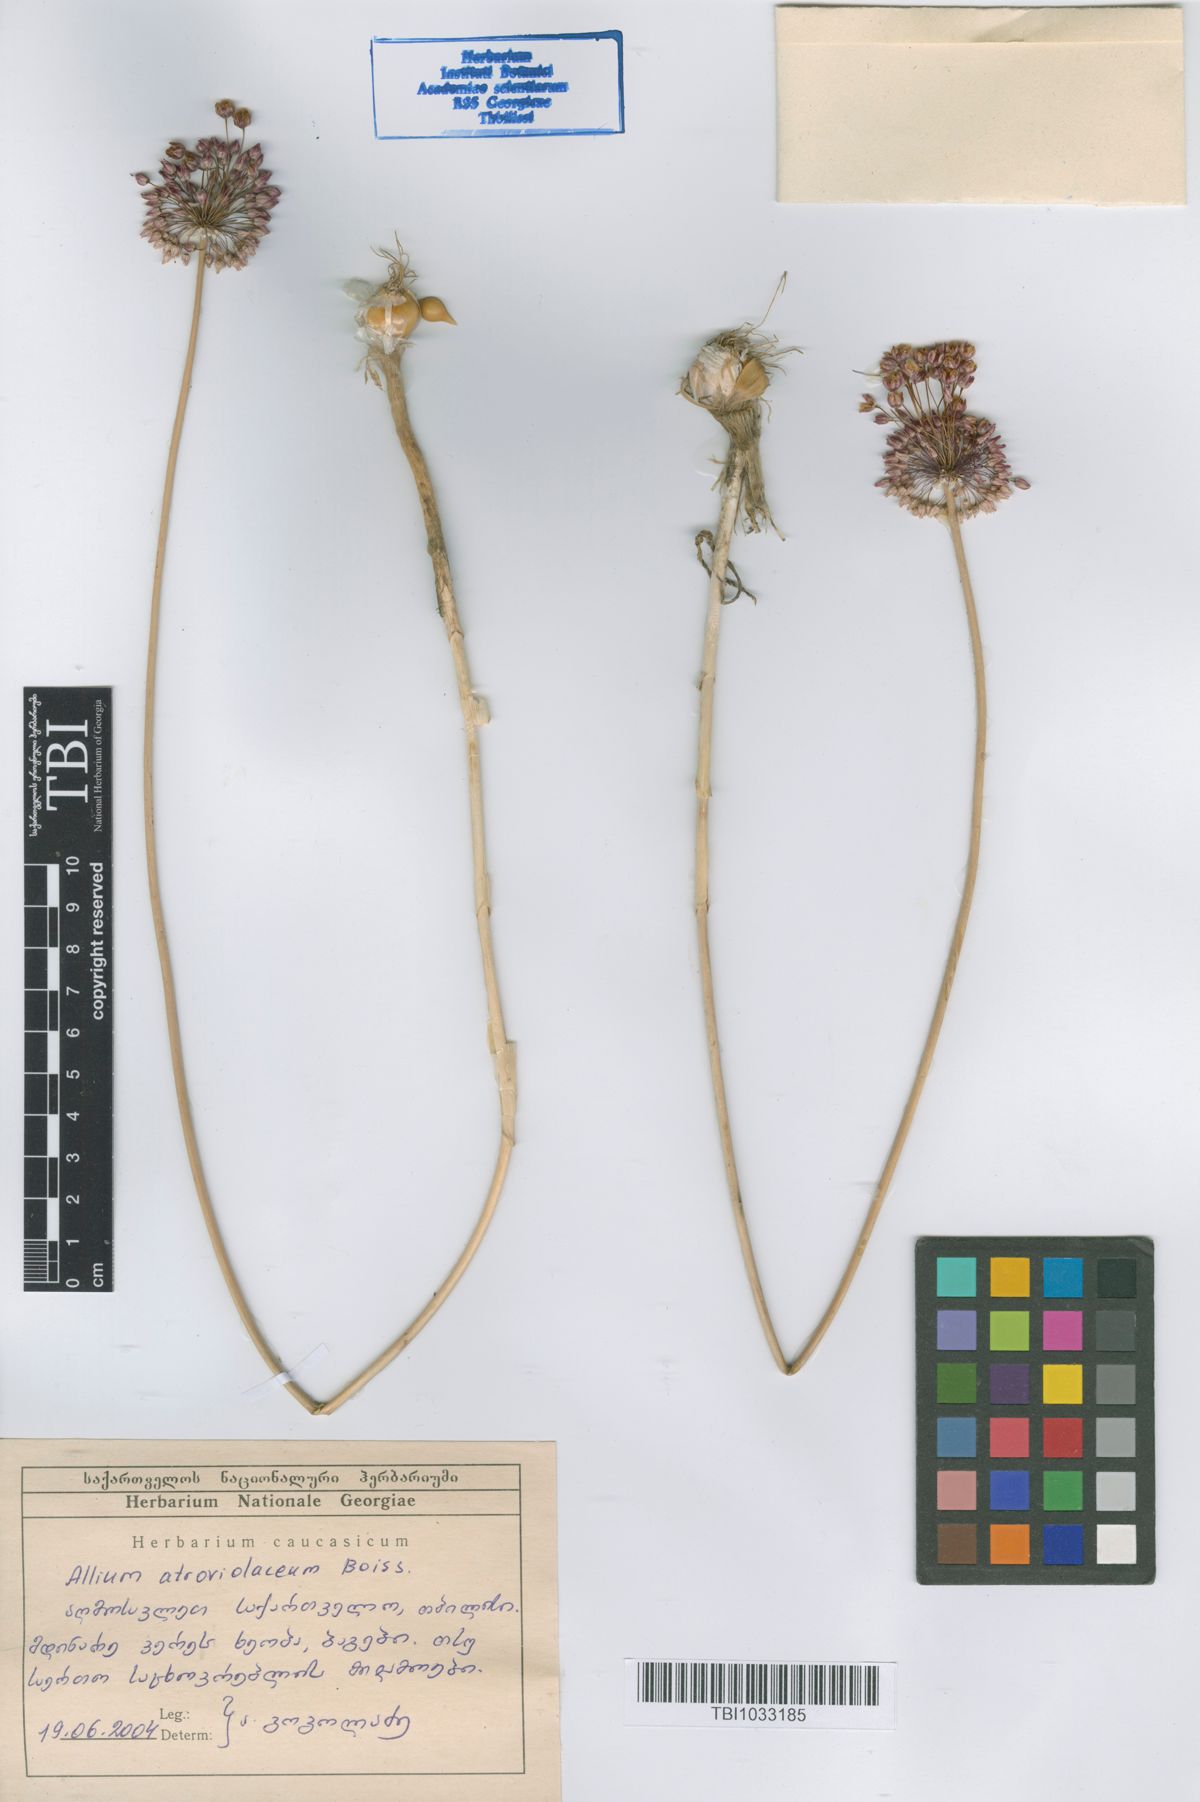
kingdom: Plantae
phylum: Tracheophyta
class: Liliopsida
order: Asparagales
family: Amaryllidaceae
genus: Allium
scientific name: Allium atroviolaceum
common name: Broadleaf wild leek
